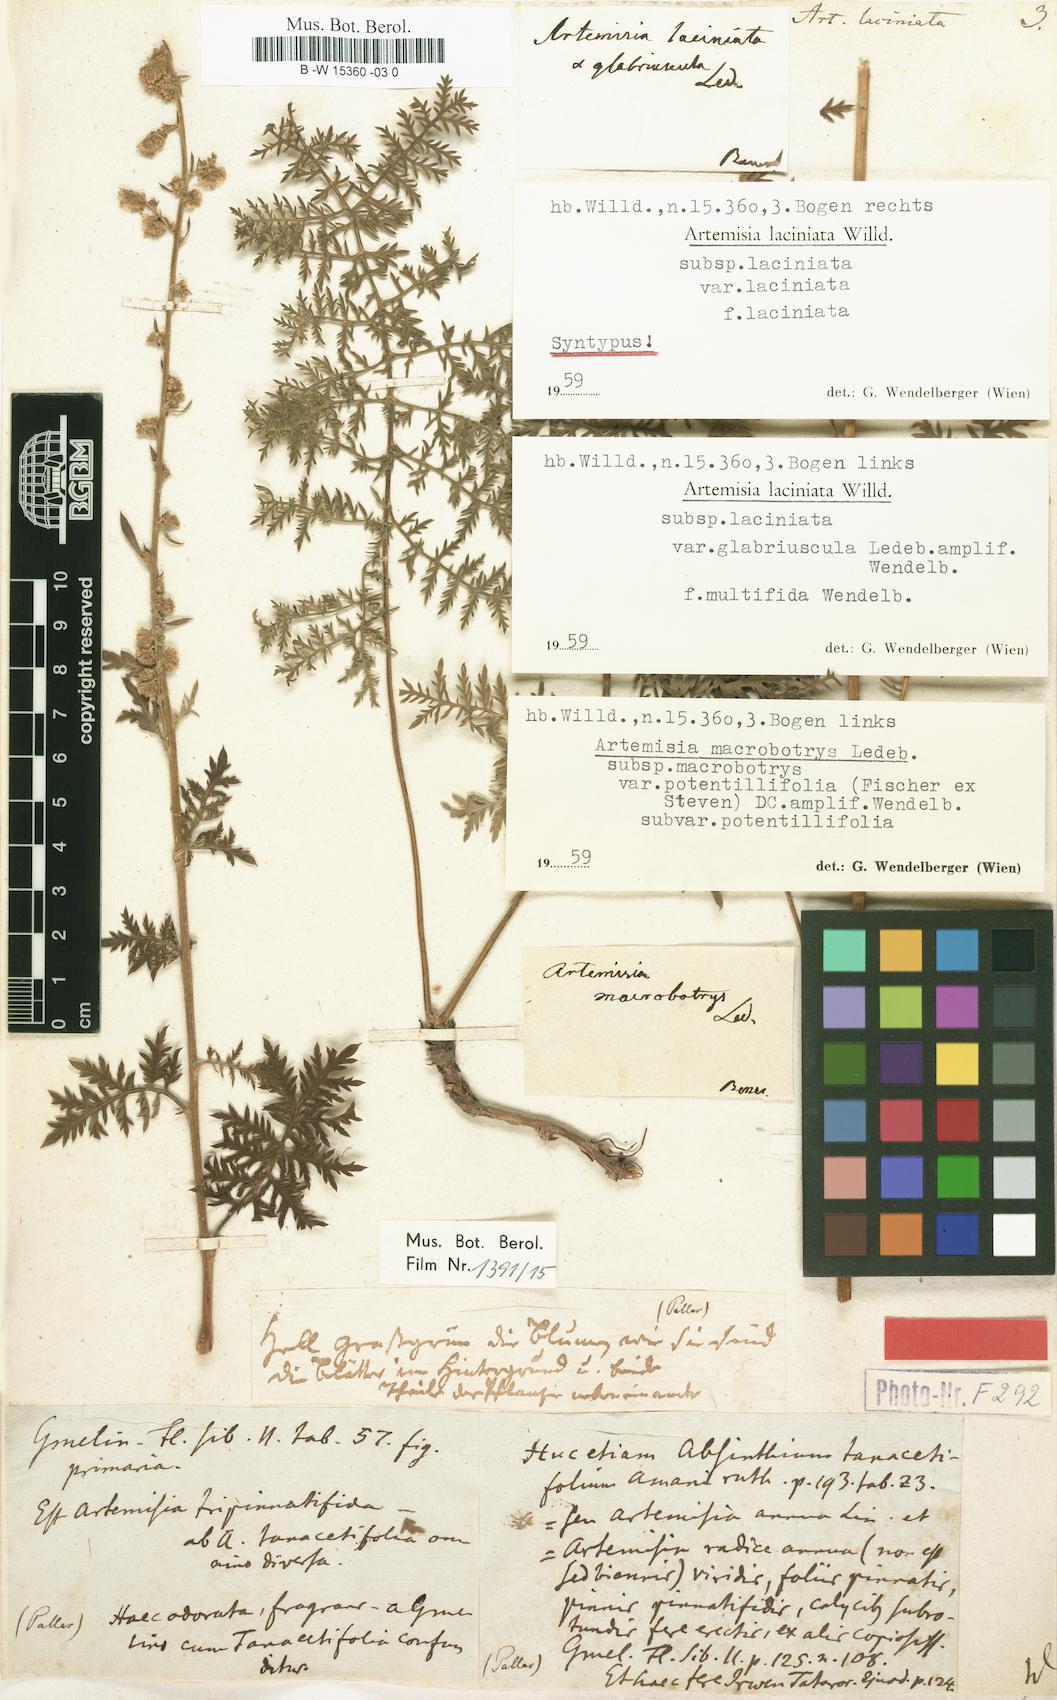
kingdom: Plantae
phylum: Tracheophyta
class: Magnoliopsida
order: Asterales
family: Asteraceae
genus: Artemisia
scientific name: Artemisia laciniata
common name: Siberian wormwood
